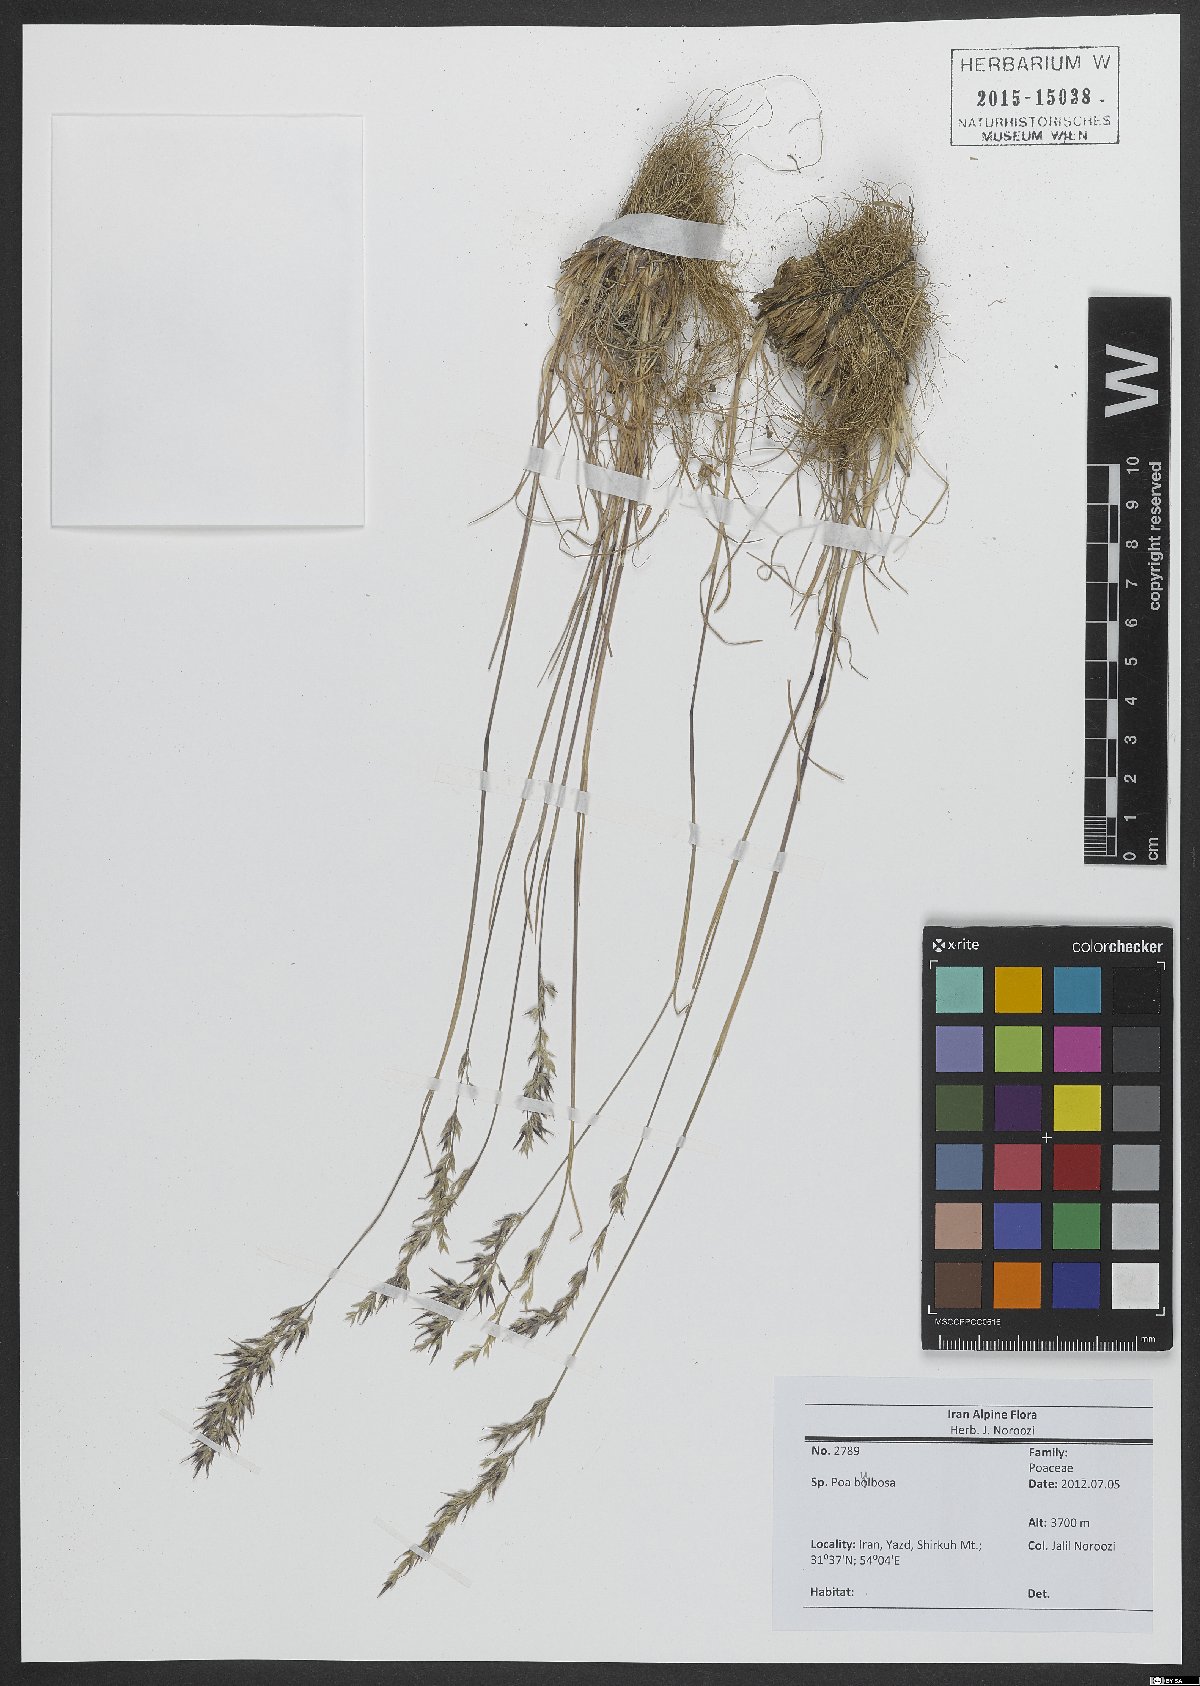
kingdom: Plantae
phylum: Tracheophyta
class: Liliopsida
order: Poales
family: Poaceae
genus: Poa
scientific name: Poa bulbosa
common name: Bulbous bluegrass
